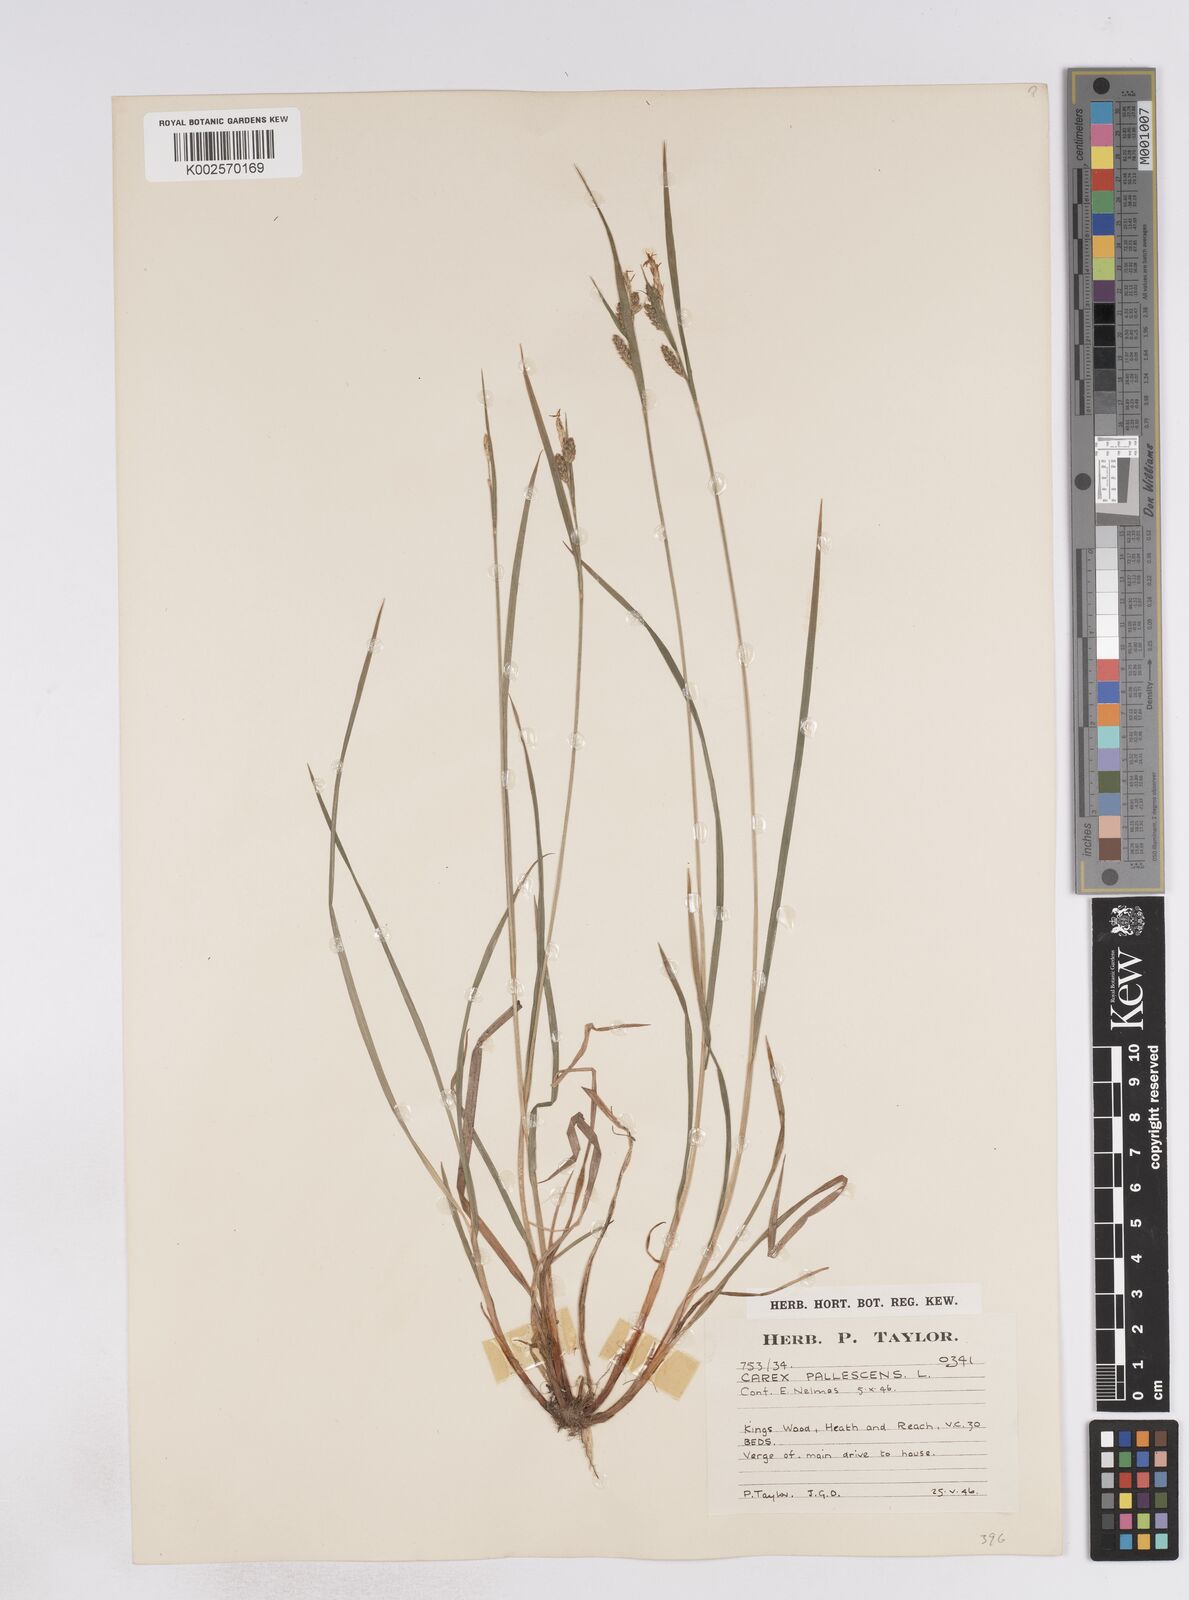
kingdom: Plantae
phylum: Tracheophyta
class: Liliopsida
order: Poales
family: Cyperaceae
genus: Carex
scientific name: Carex pallescens
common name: Pale sedge
